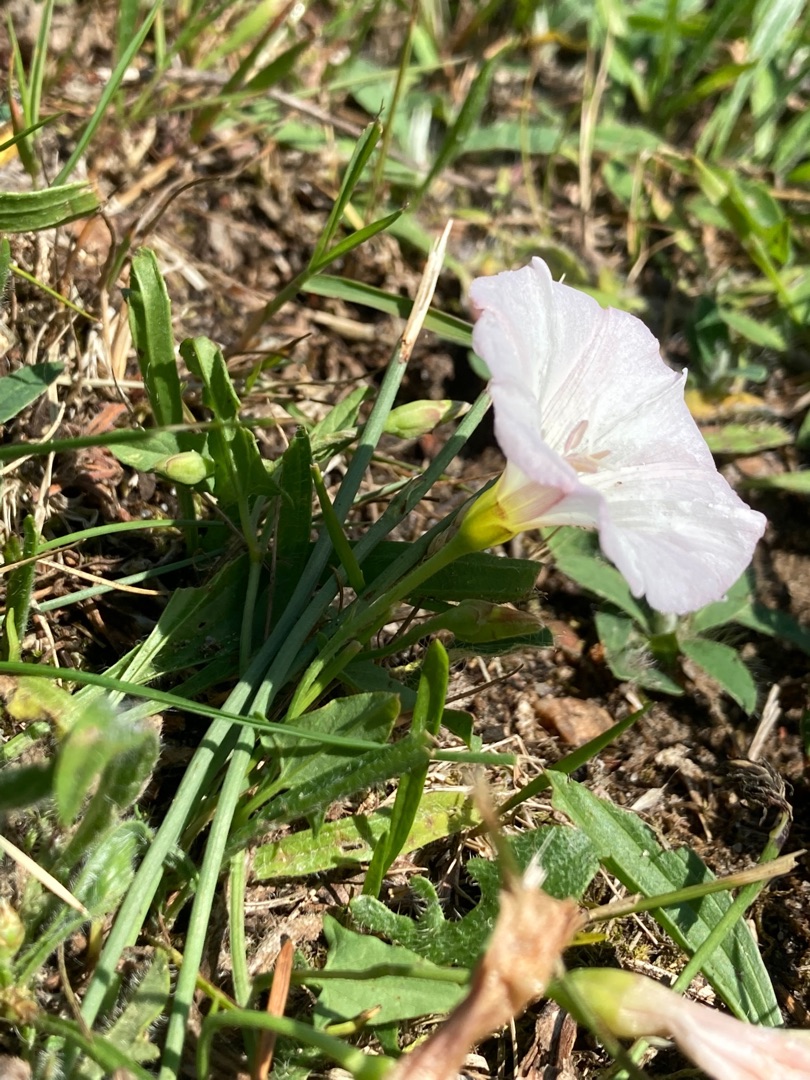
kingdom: Plantae
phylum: Tracheophyta
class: Magnoliopsida
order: Solanales
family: Convolvulaceae
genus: Convolvulus
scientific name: Convolvulus arvensis
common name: Ager-snerle
